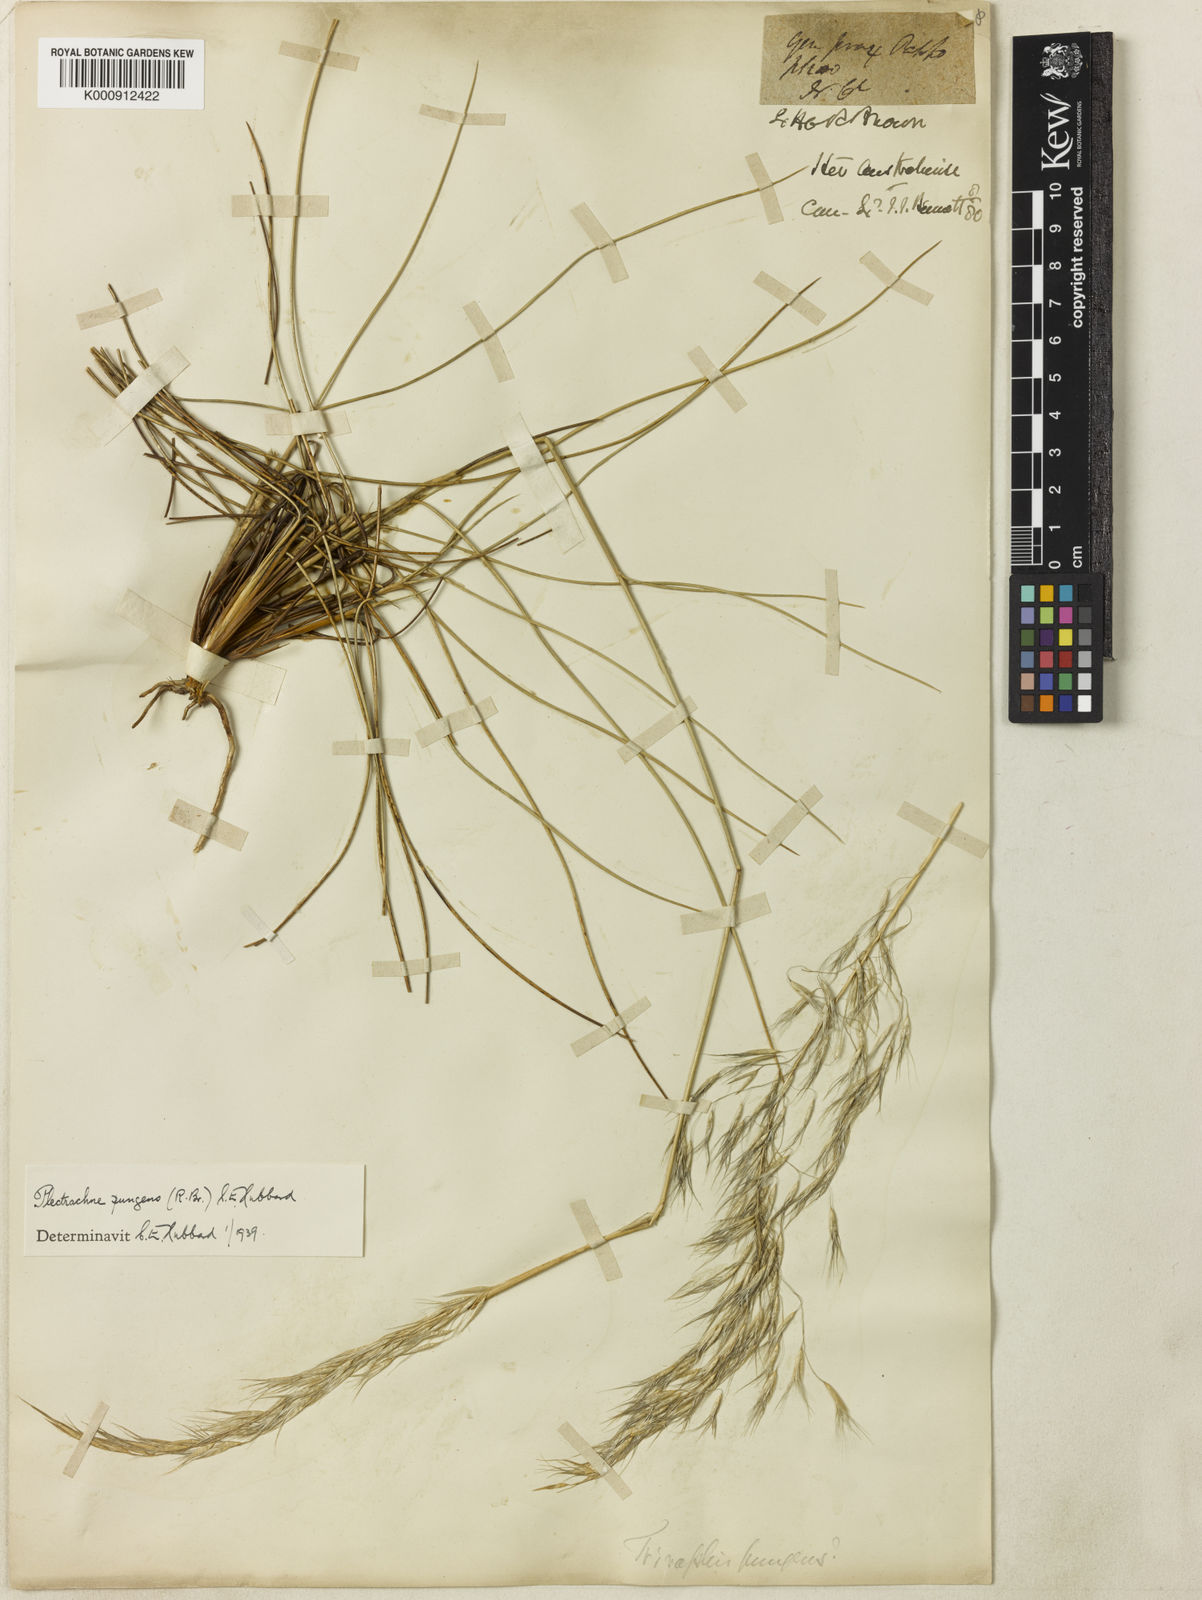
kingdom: Plantae
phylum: Tracheophyta
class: Liliopsida
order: Poales
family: Poaceae
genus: Triodia
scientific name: Triodia bitextura
